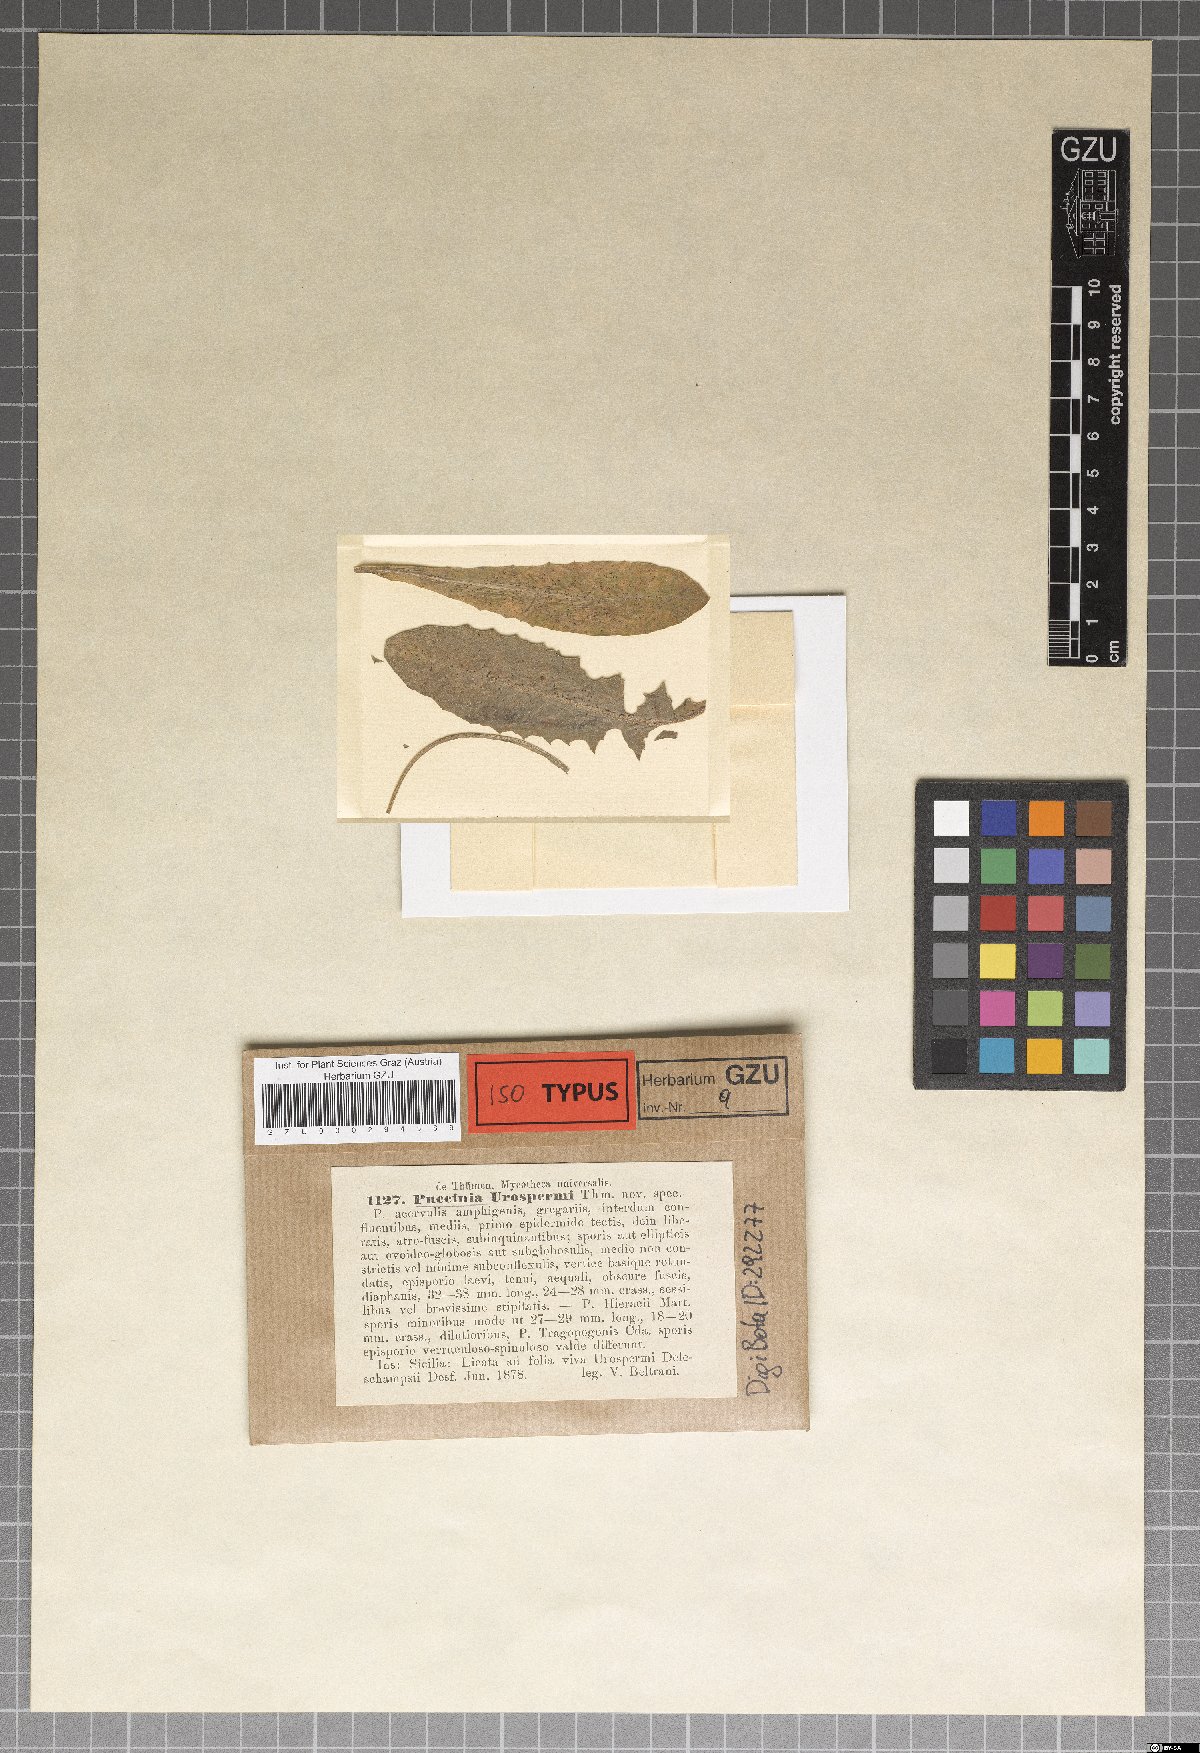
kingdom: Fungi
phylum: Basidiomycota
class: Pucciniomycetes
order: Pucciniales
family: Pucciniaceae
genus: Puccinia
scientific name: Puccinia urospermi
